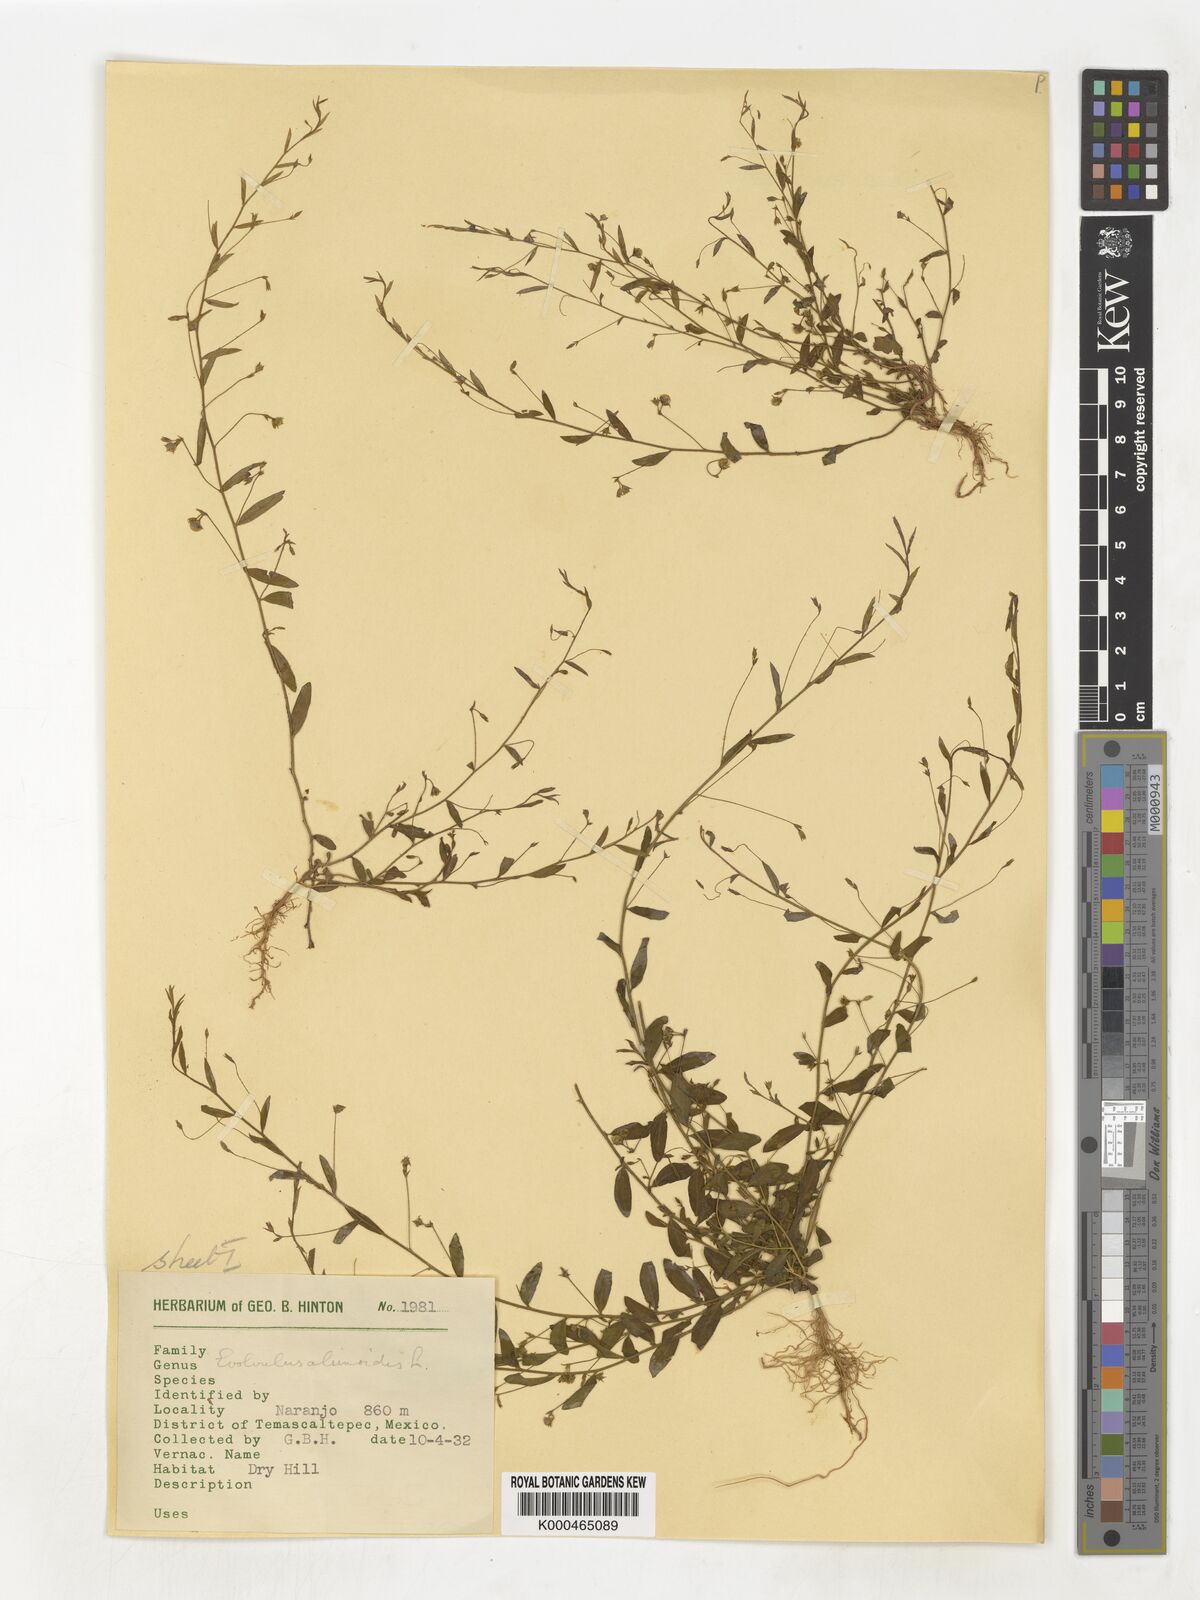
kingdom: Plantae
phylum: Tracheophyta
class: Magnoliopsida
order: Solanales
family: Convolvulaceae
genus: Evolvulus
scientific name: Evolvulus alsinoides
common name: Slender dwarf morning-glory
